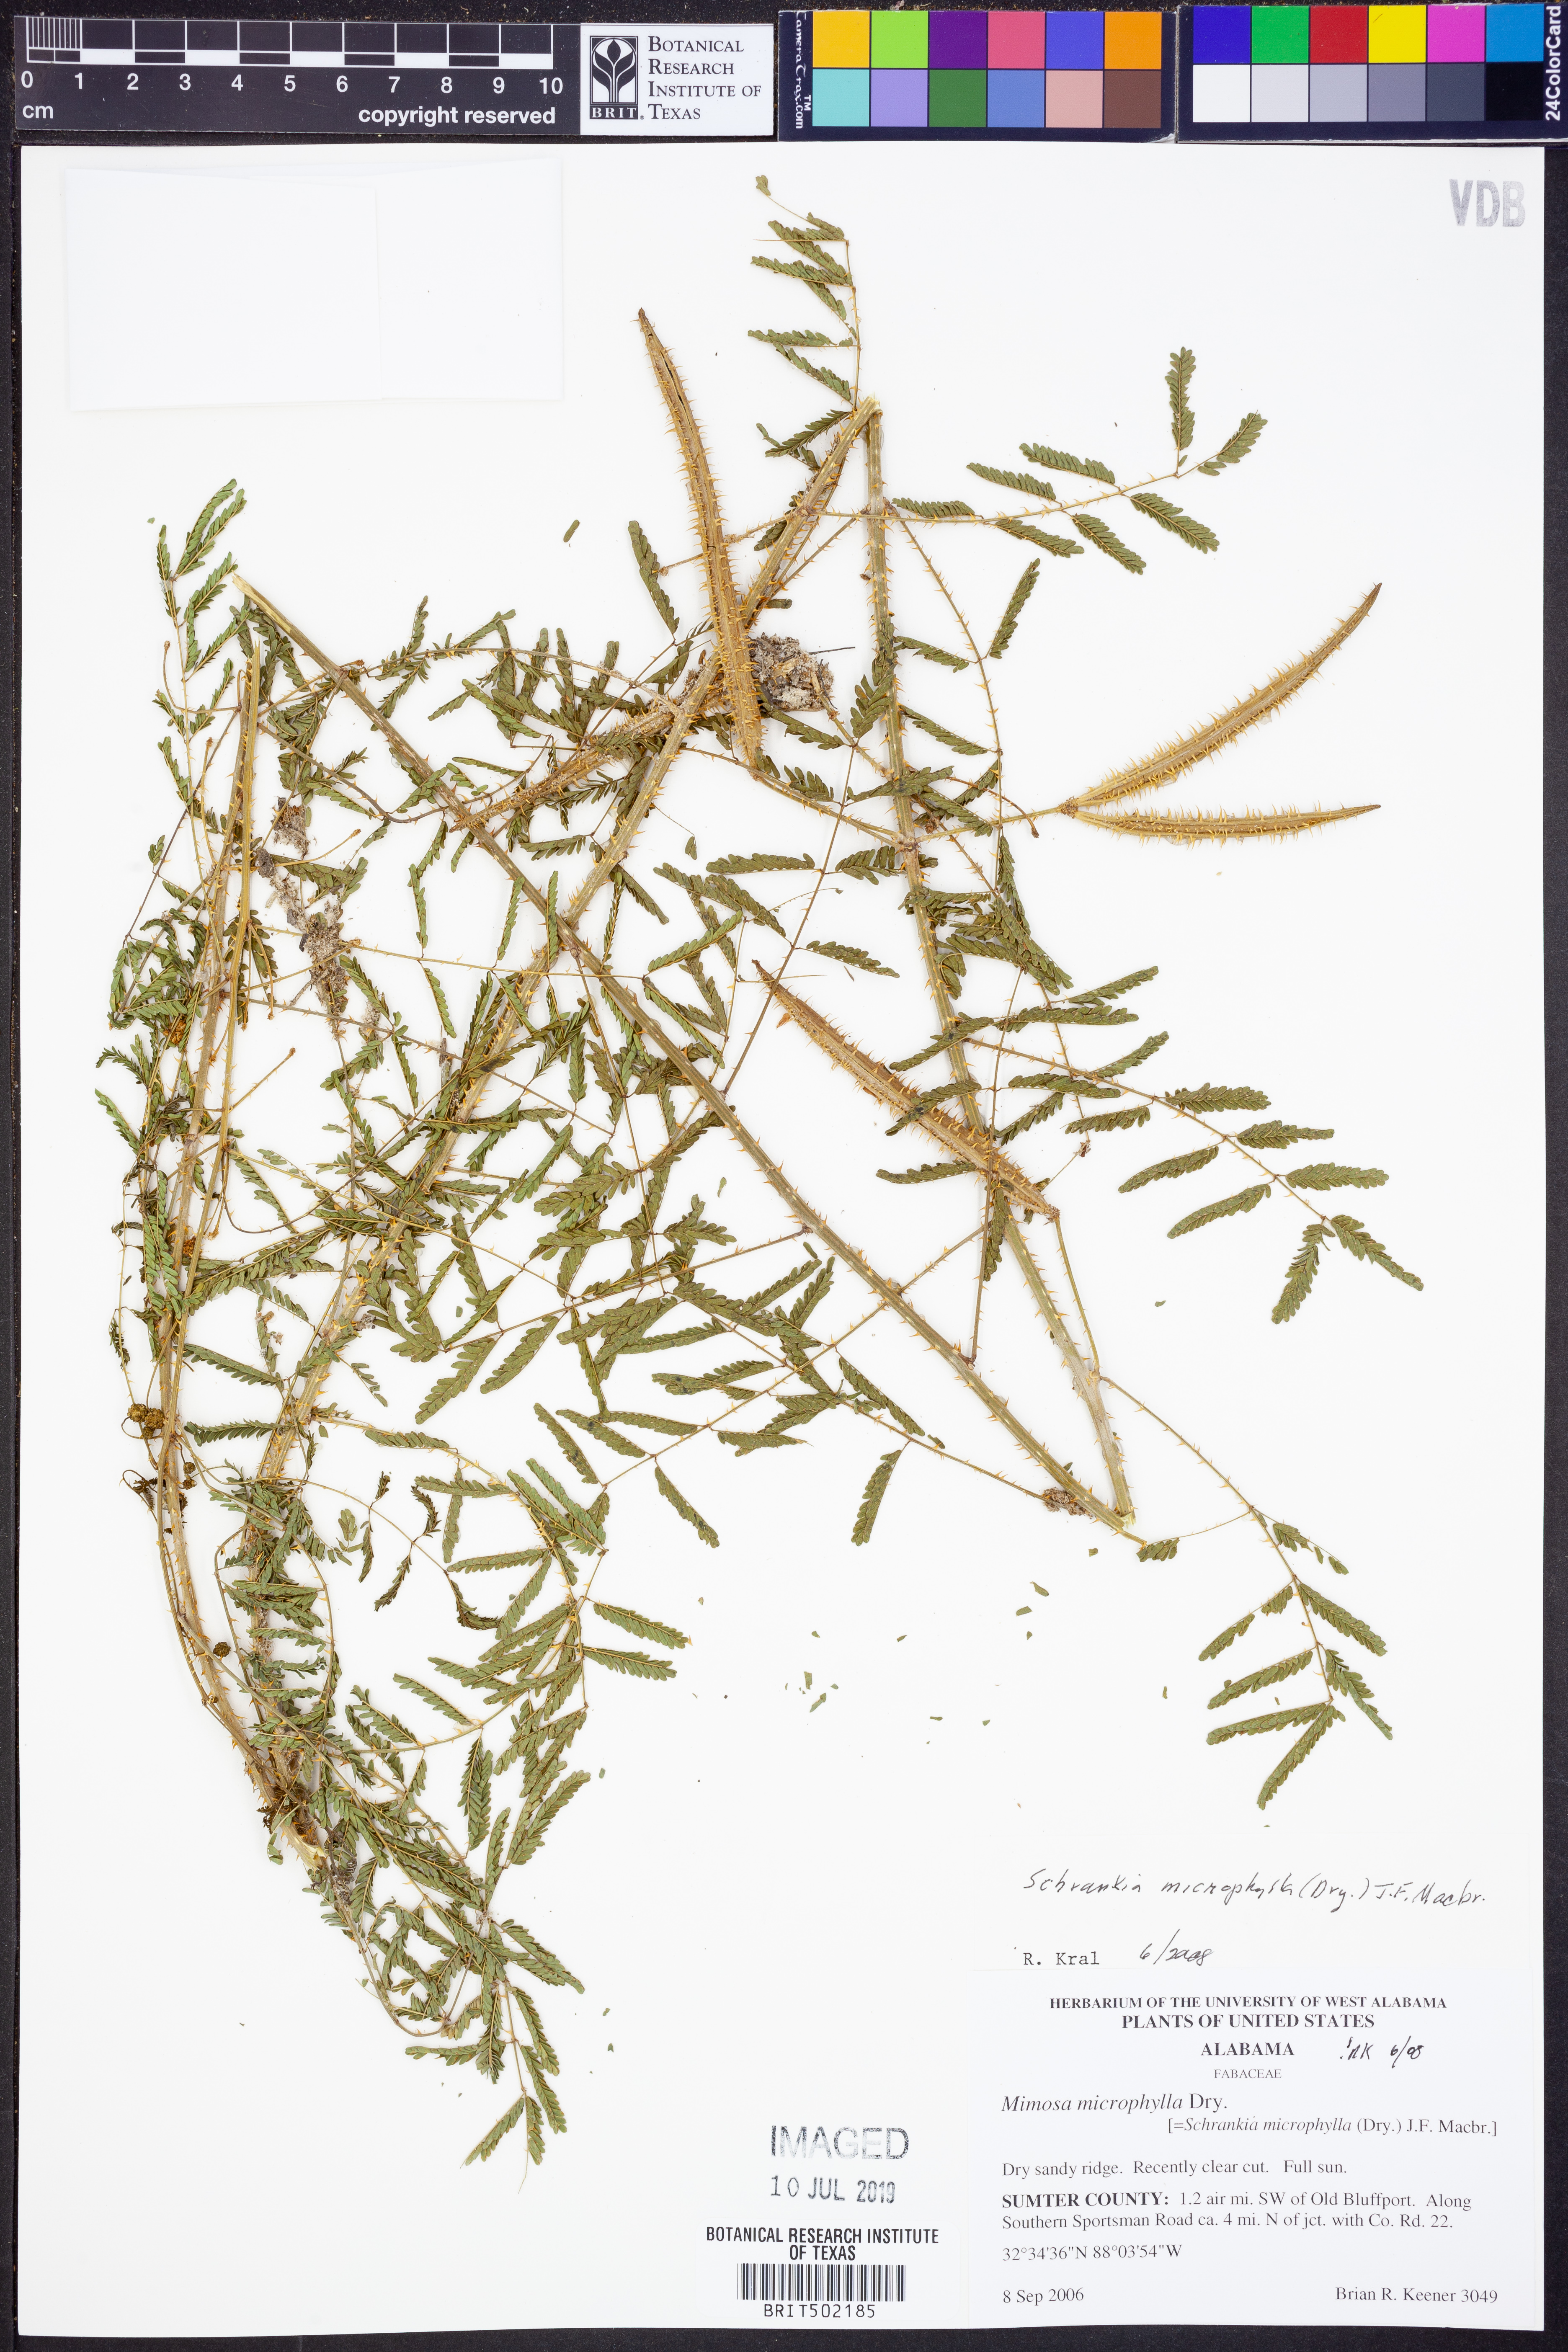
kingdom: Plantae
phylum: Tracheophyta
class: Magnoliopsida
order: Fabales
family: Fabaceae
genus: Mimosa
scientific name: Mimosa quadrivalvis
